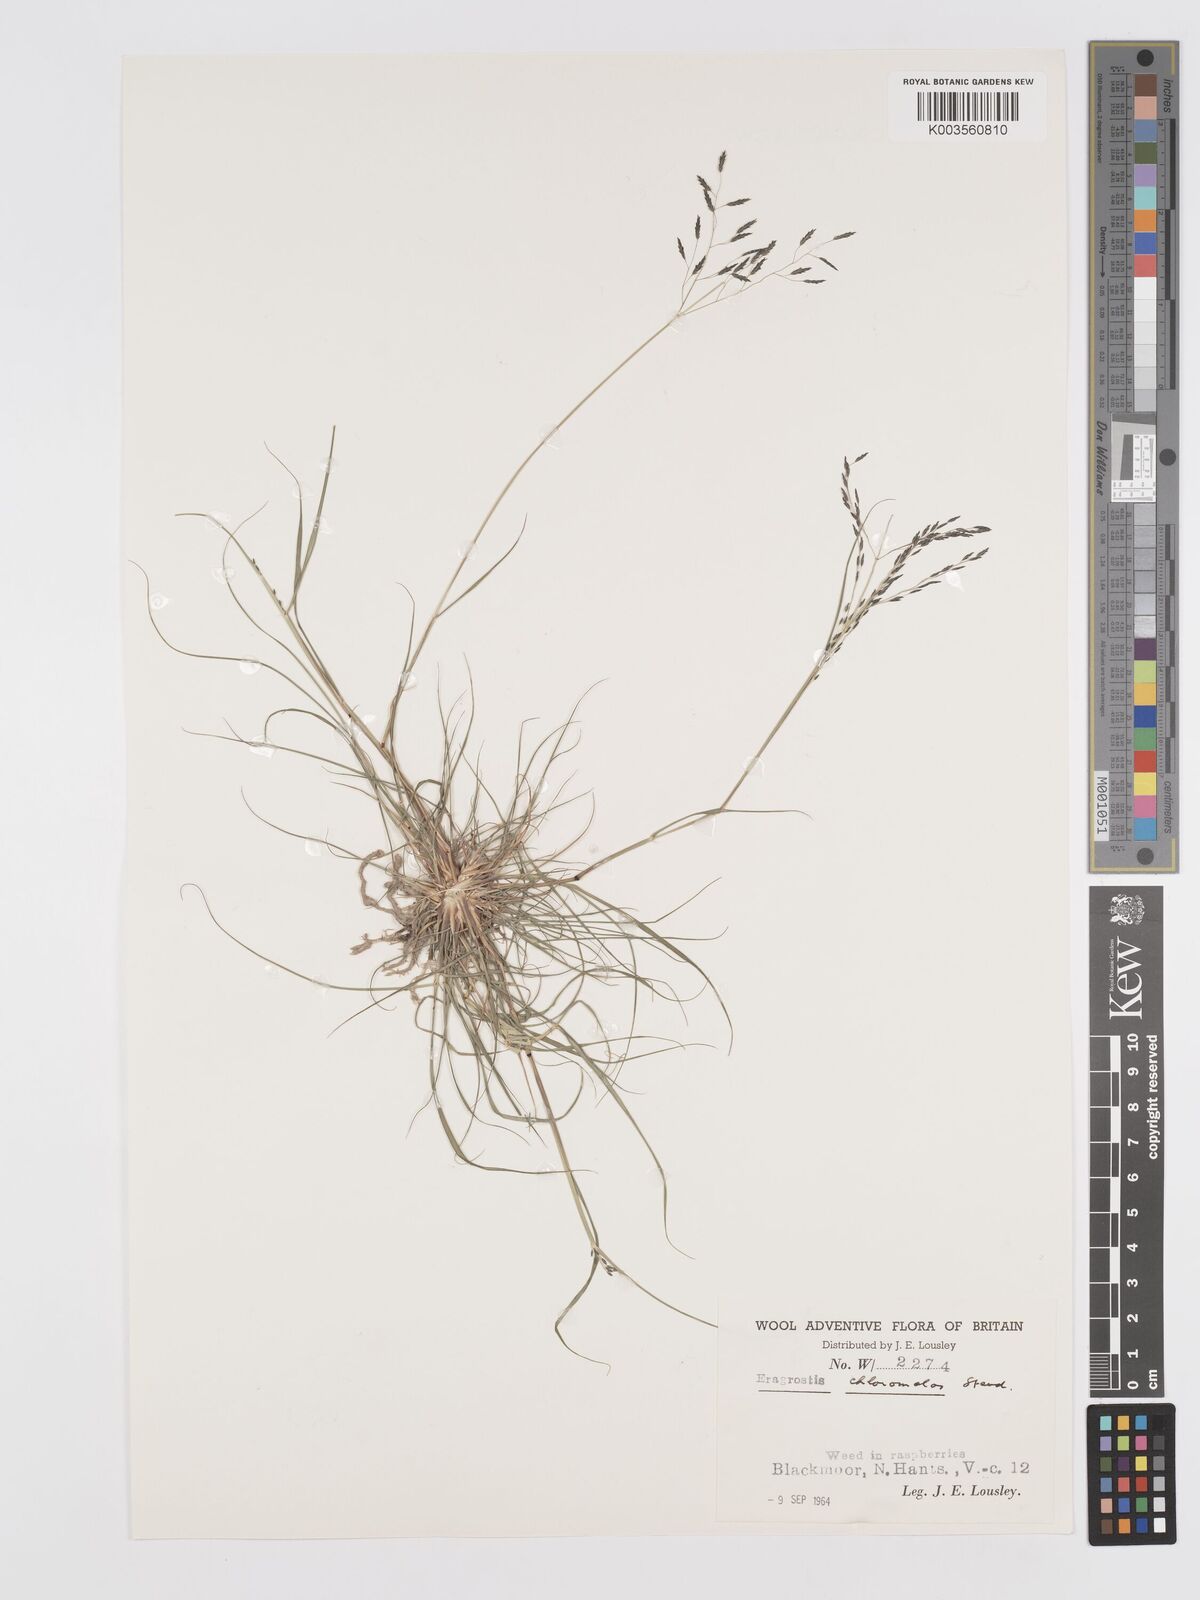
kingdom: Plantae
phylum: Tracheophyta
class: Liliopsida
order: Poales
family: Poaceae
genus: Eragrostis
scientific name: Eragrostis curvula
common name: African love-grass
